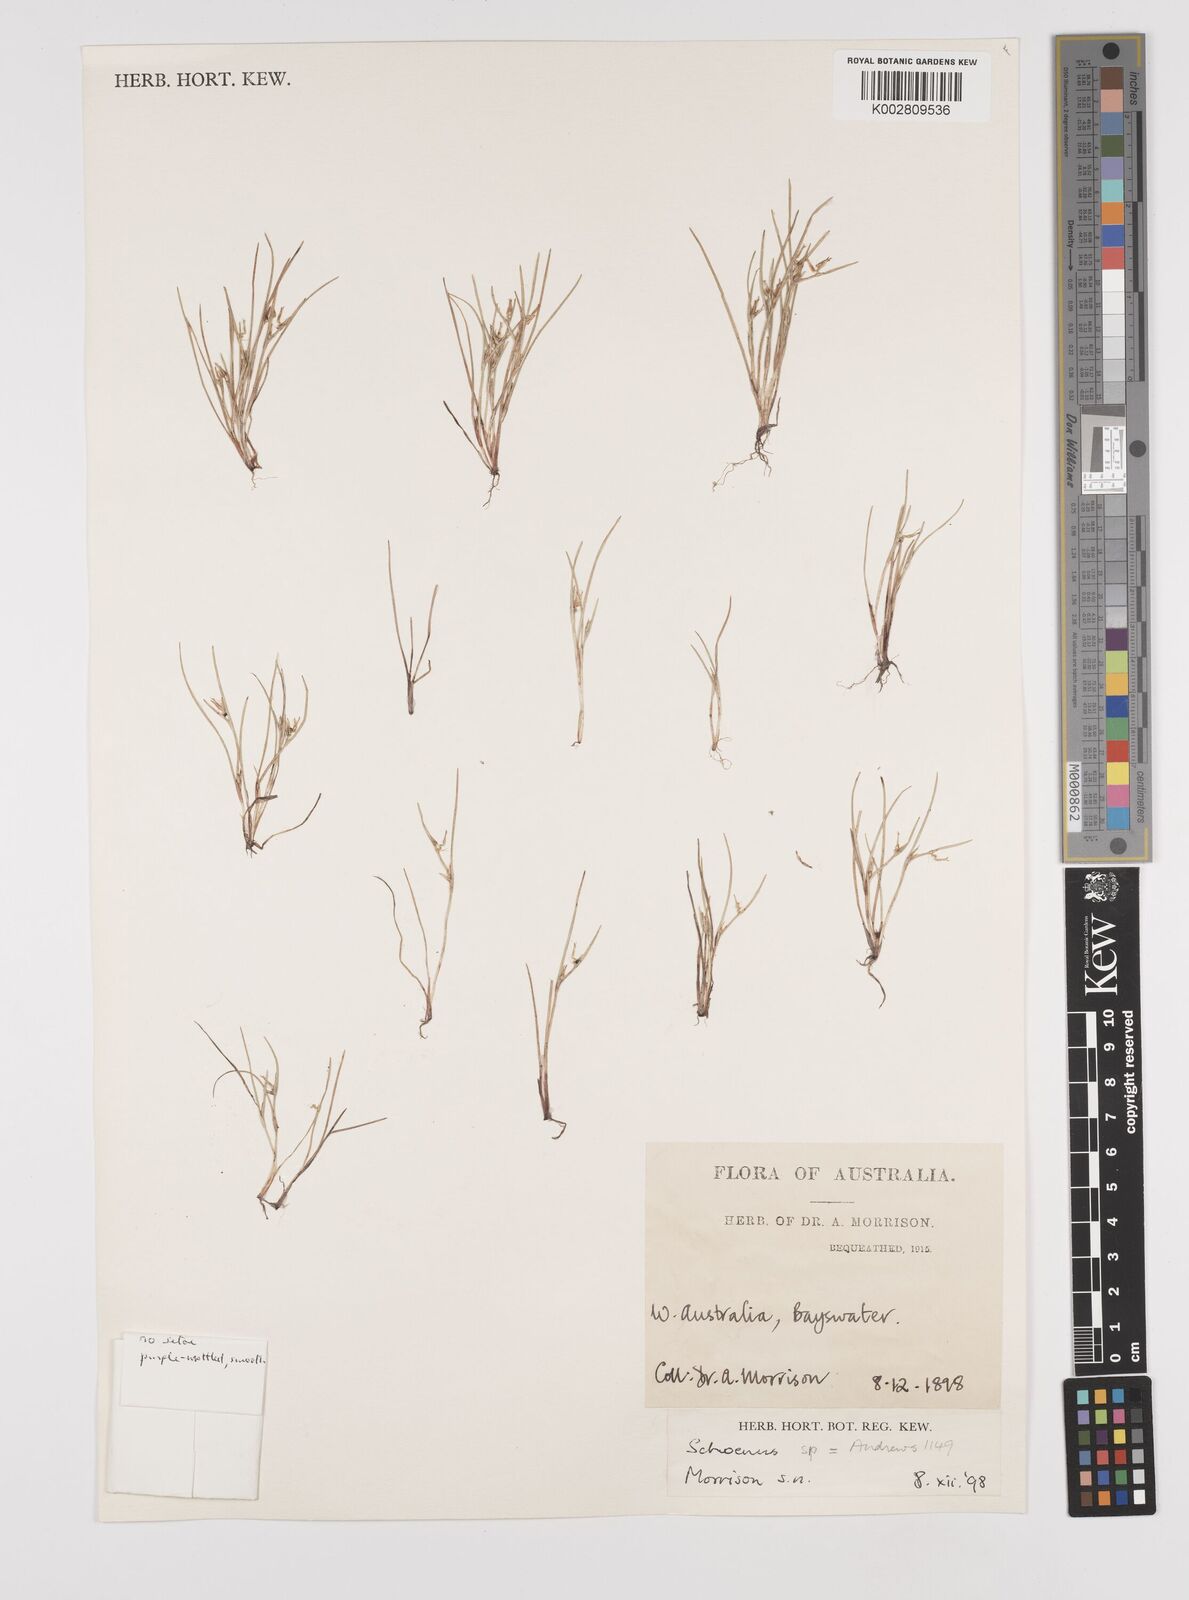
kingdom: Plantae
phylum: Tracheophyta
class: Liliopsida
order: Poales
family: Cyperaceae
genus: Schoenus
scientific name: Schoenus
